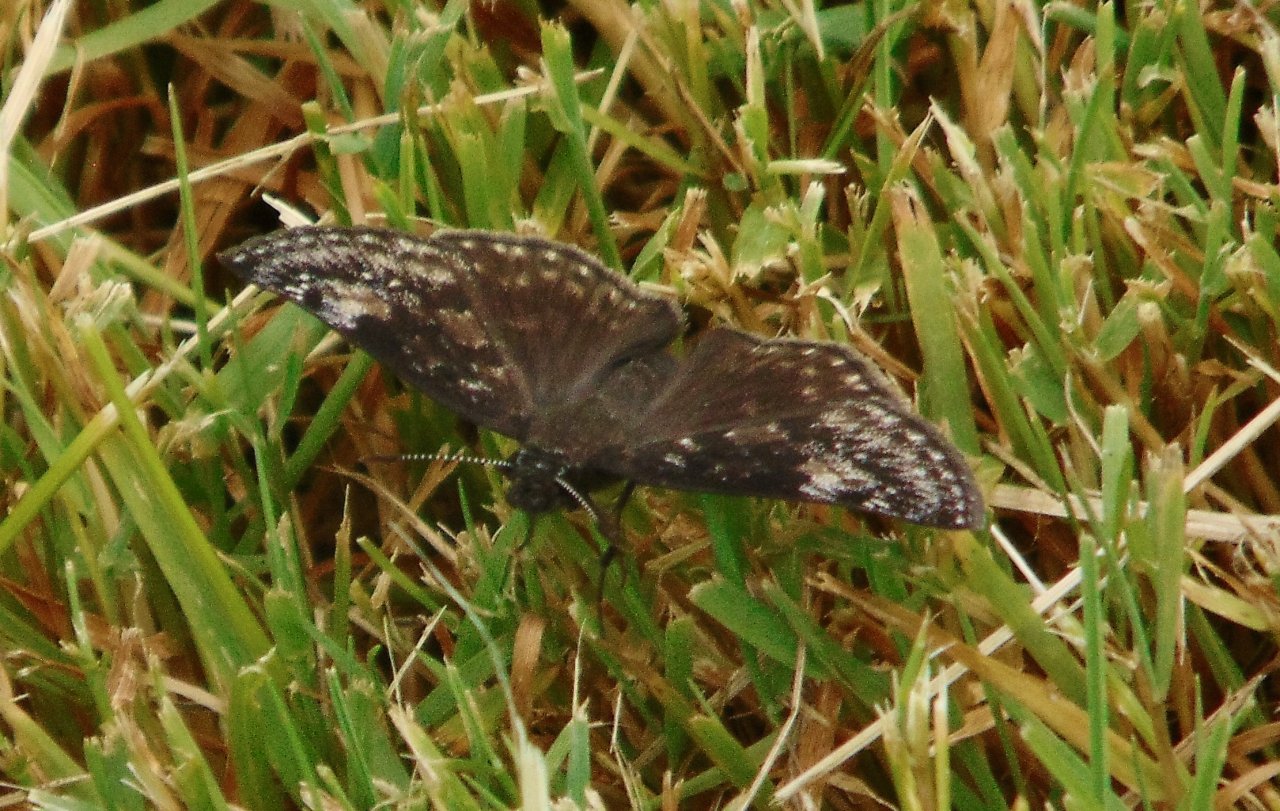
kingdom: Animalia
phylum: Arthropoda
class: Insecta
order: Lepidoptera
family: Hesperiidae
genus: Gesta
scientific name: Gesta
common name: Wild Indigo Duskywing
